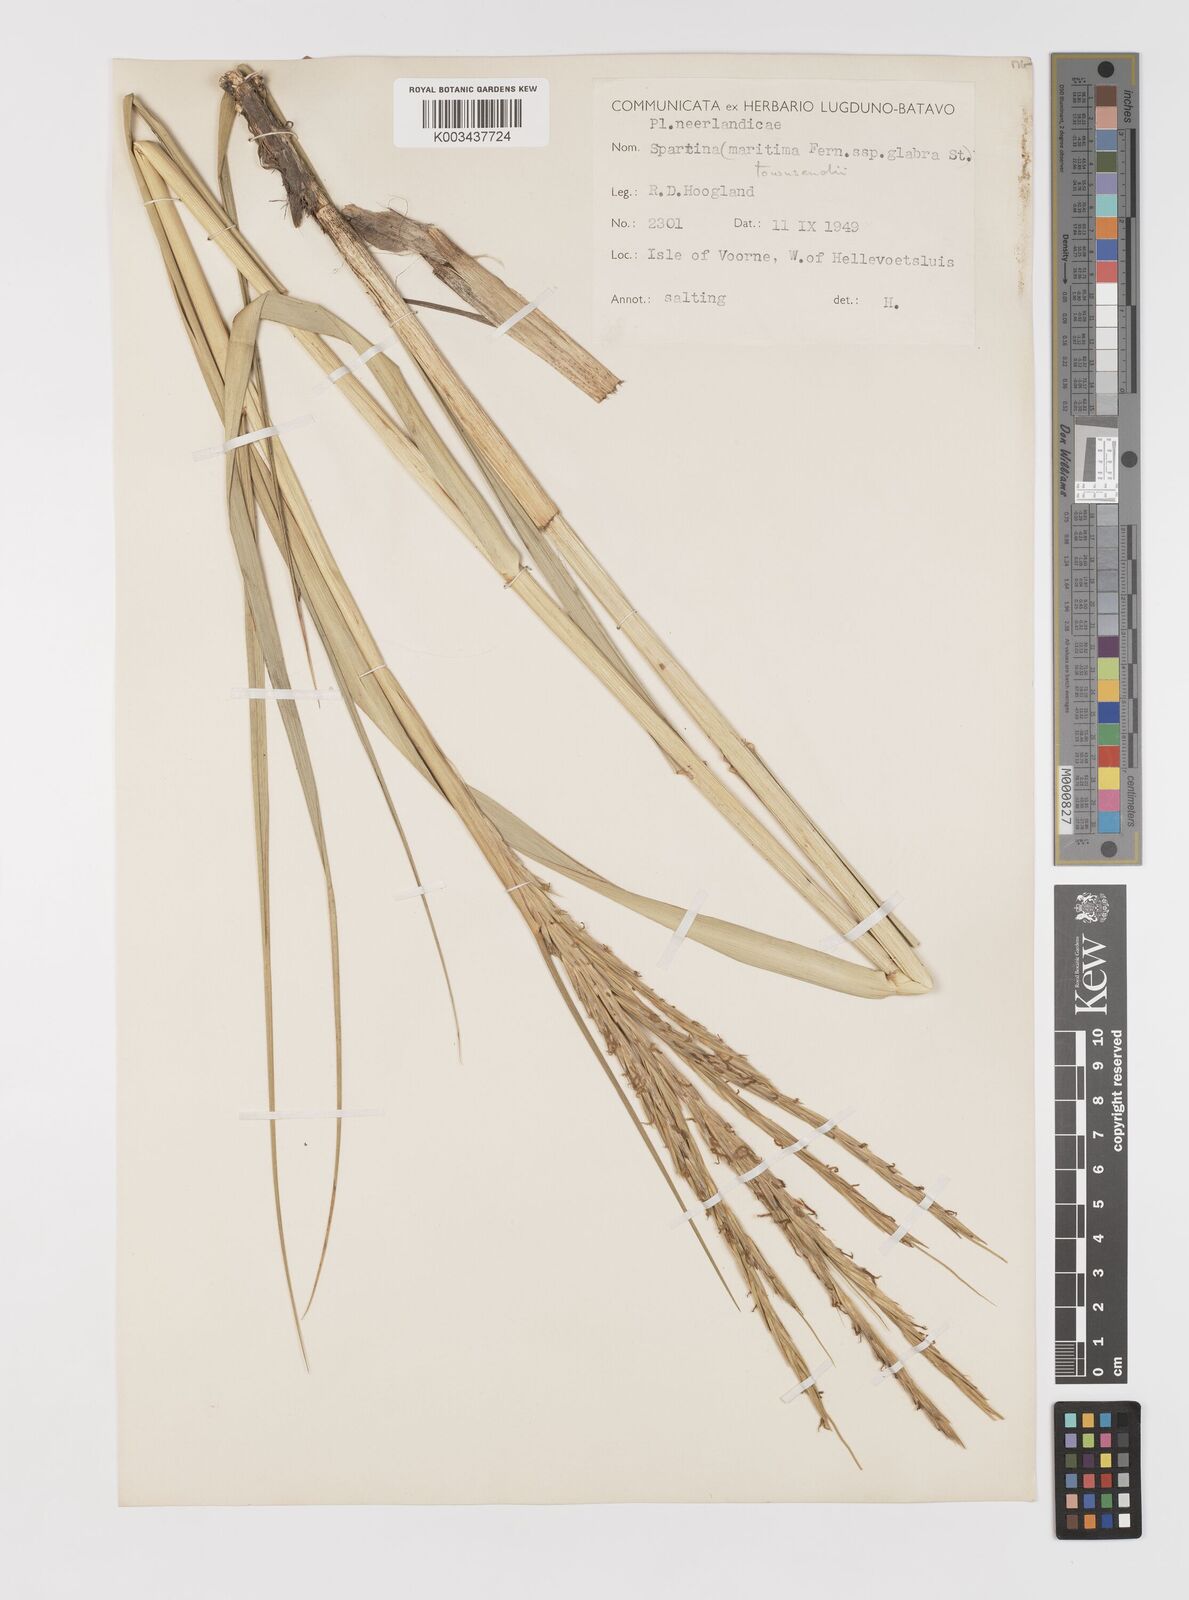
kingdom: Plantae
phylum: Tracheophyta
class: Liliopsida
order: Poales
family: Poaceae
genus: Sporobolus
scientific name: Sporobolus anglicus
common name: English cordgrass
